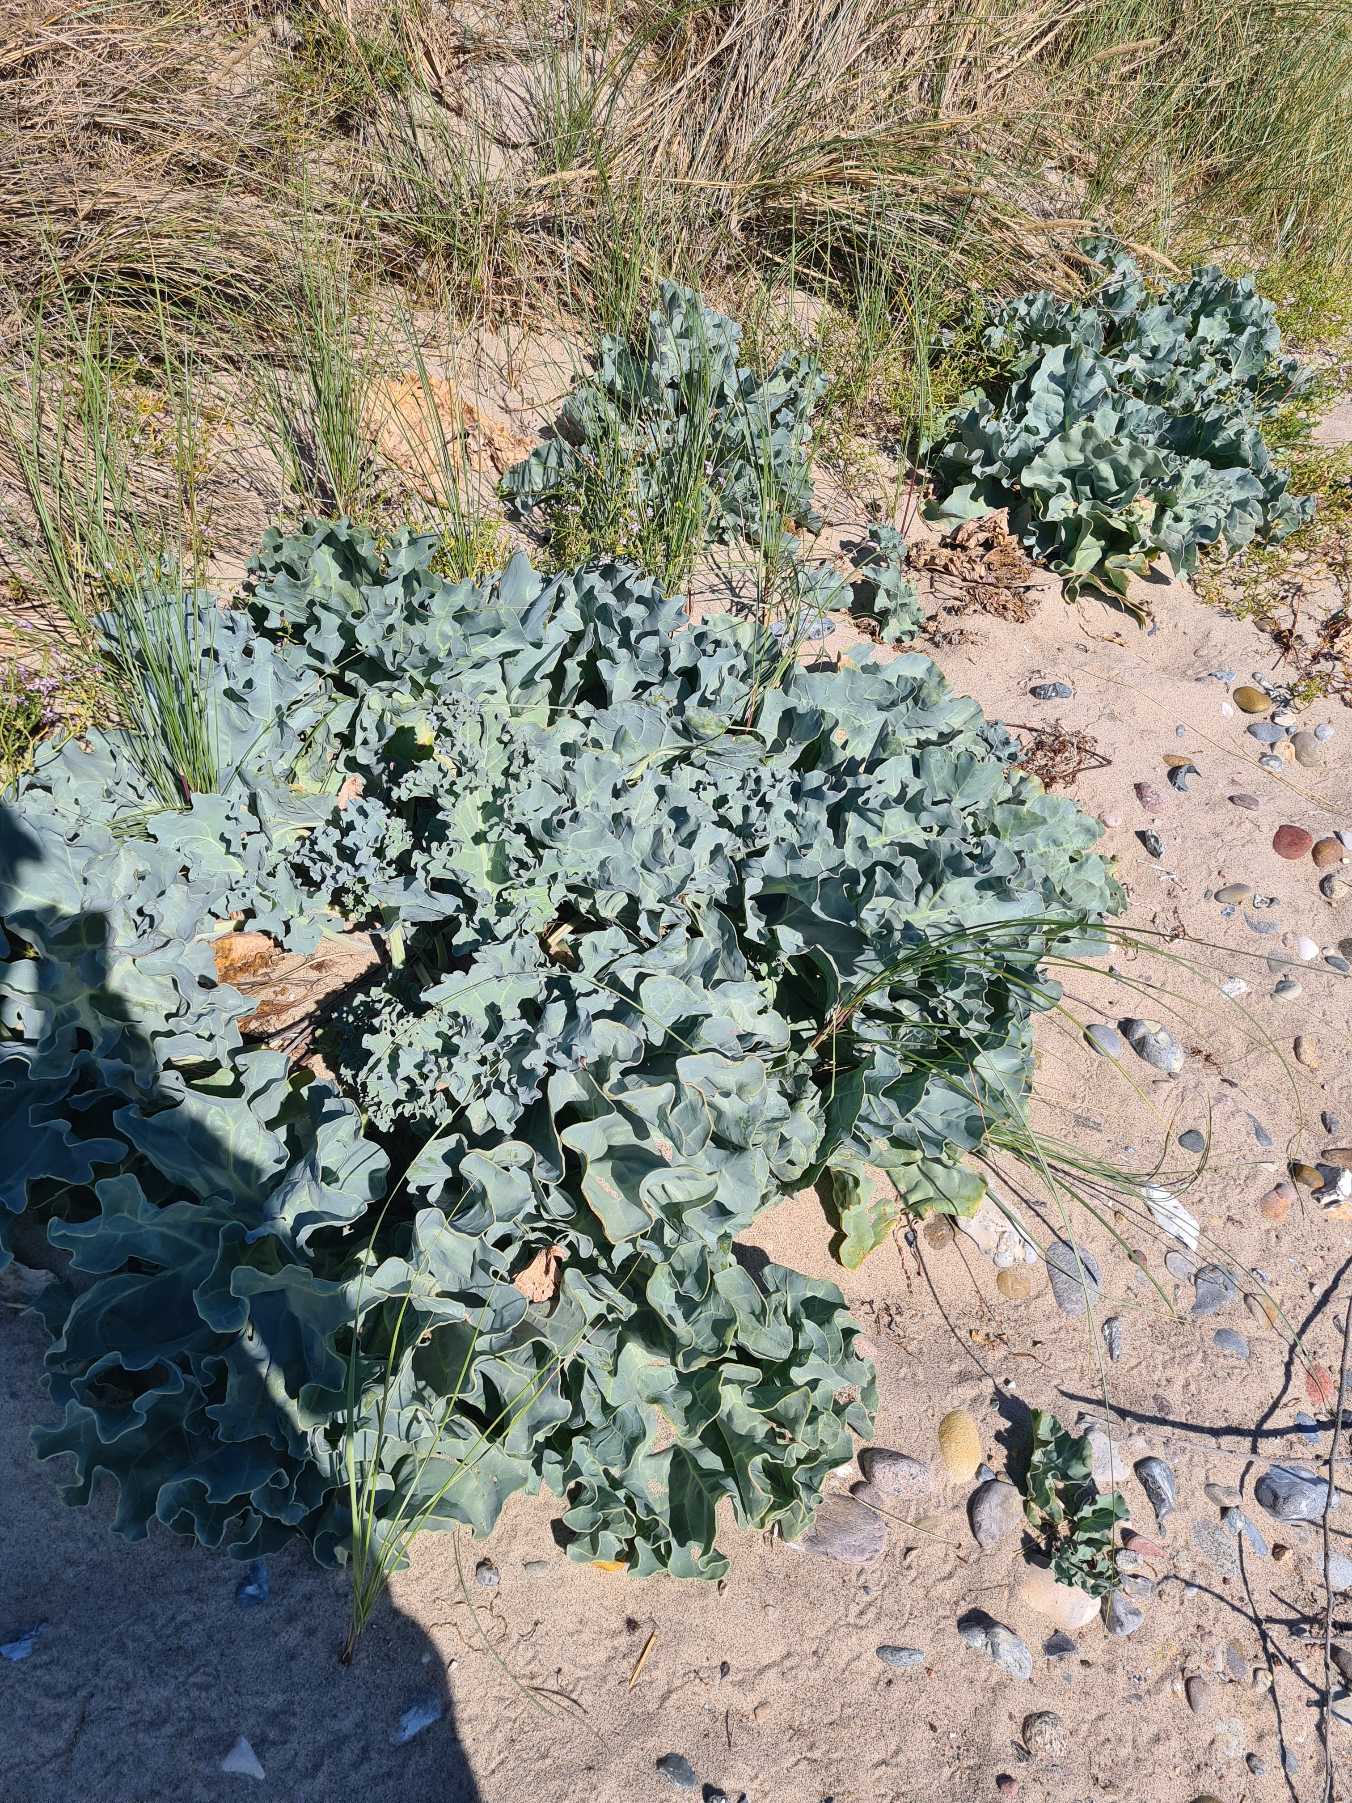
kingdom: Plantae
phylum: Tracheophyta
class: Magnoliopsida
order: Brassicales
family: Brassicaceae
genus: Crambe
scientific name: Crambe maritima
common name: Strandkål
